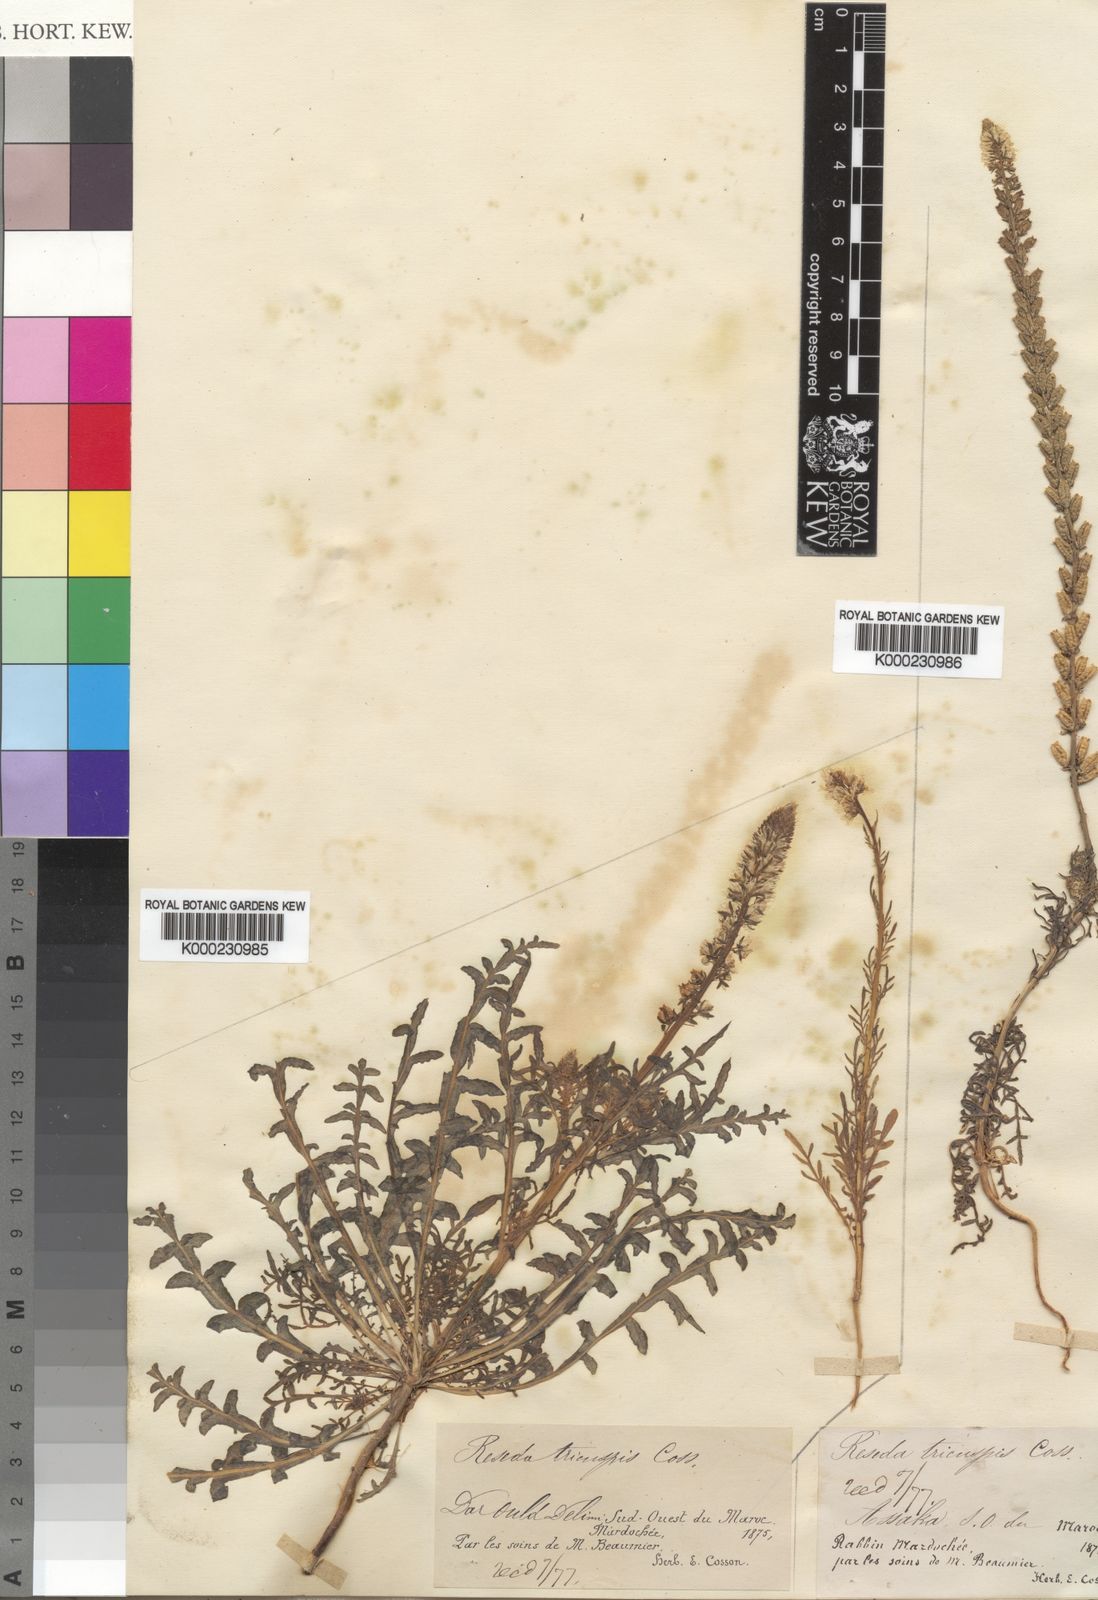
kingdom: Plantae
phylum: Tracheophyta
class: Magnoliopsida
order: Brassicales
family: Resedaceae
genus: Reseda
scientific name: Reseda alba
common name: White mignonette
